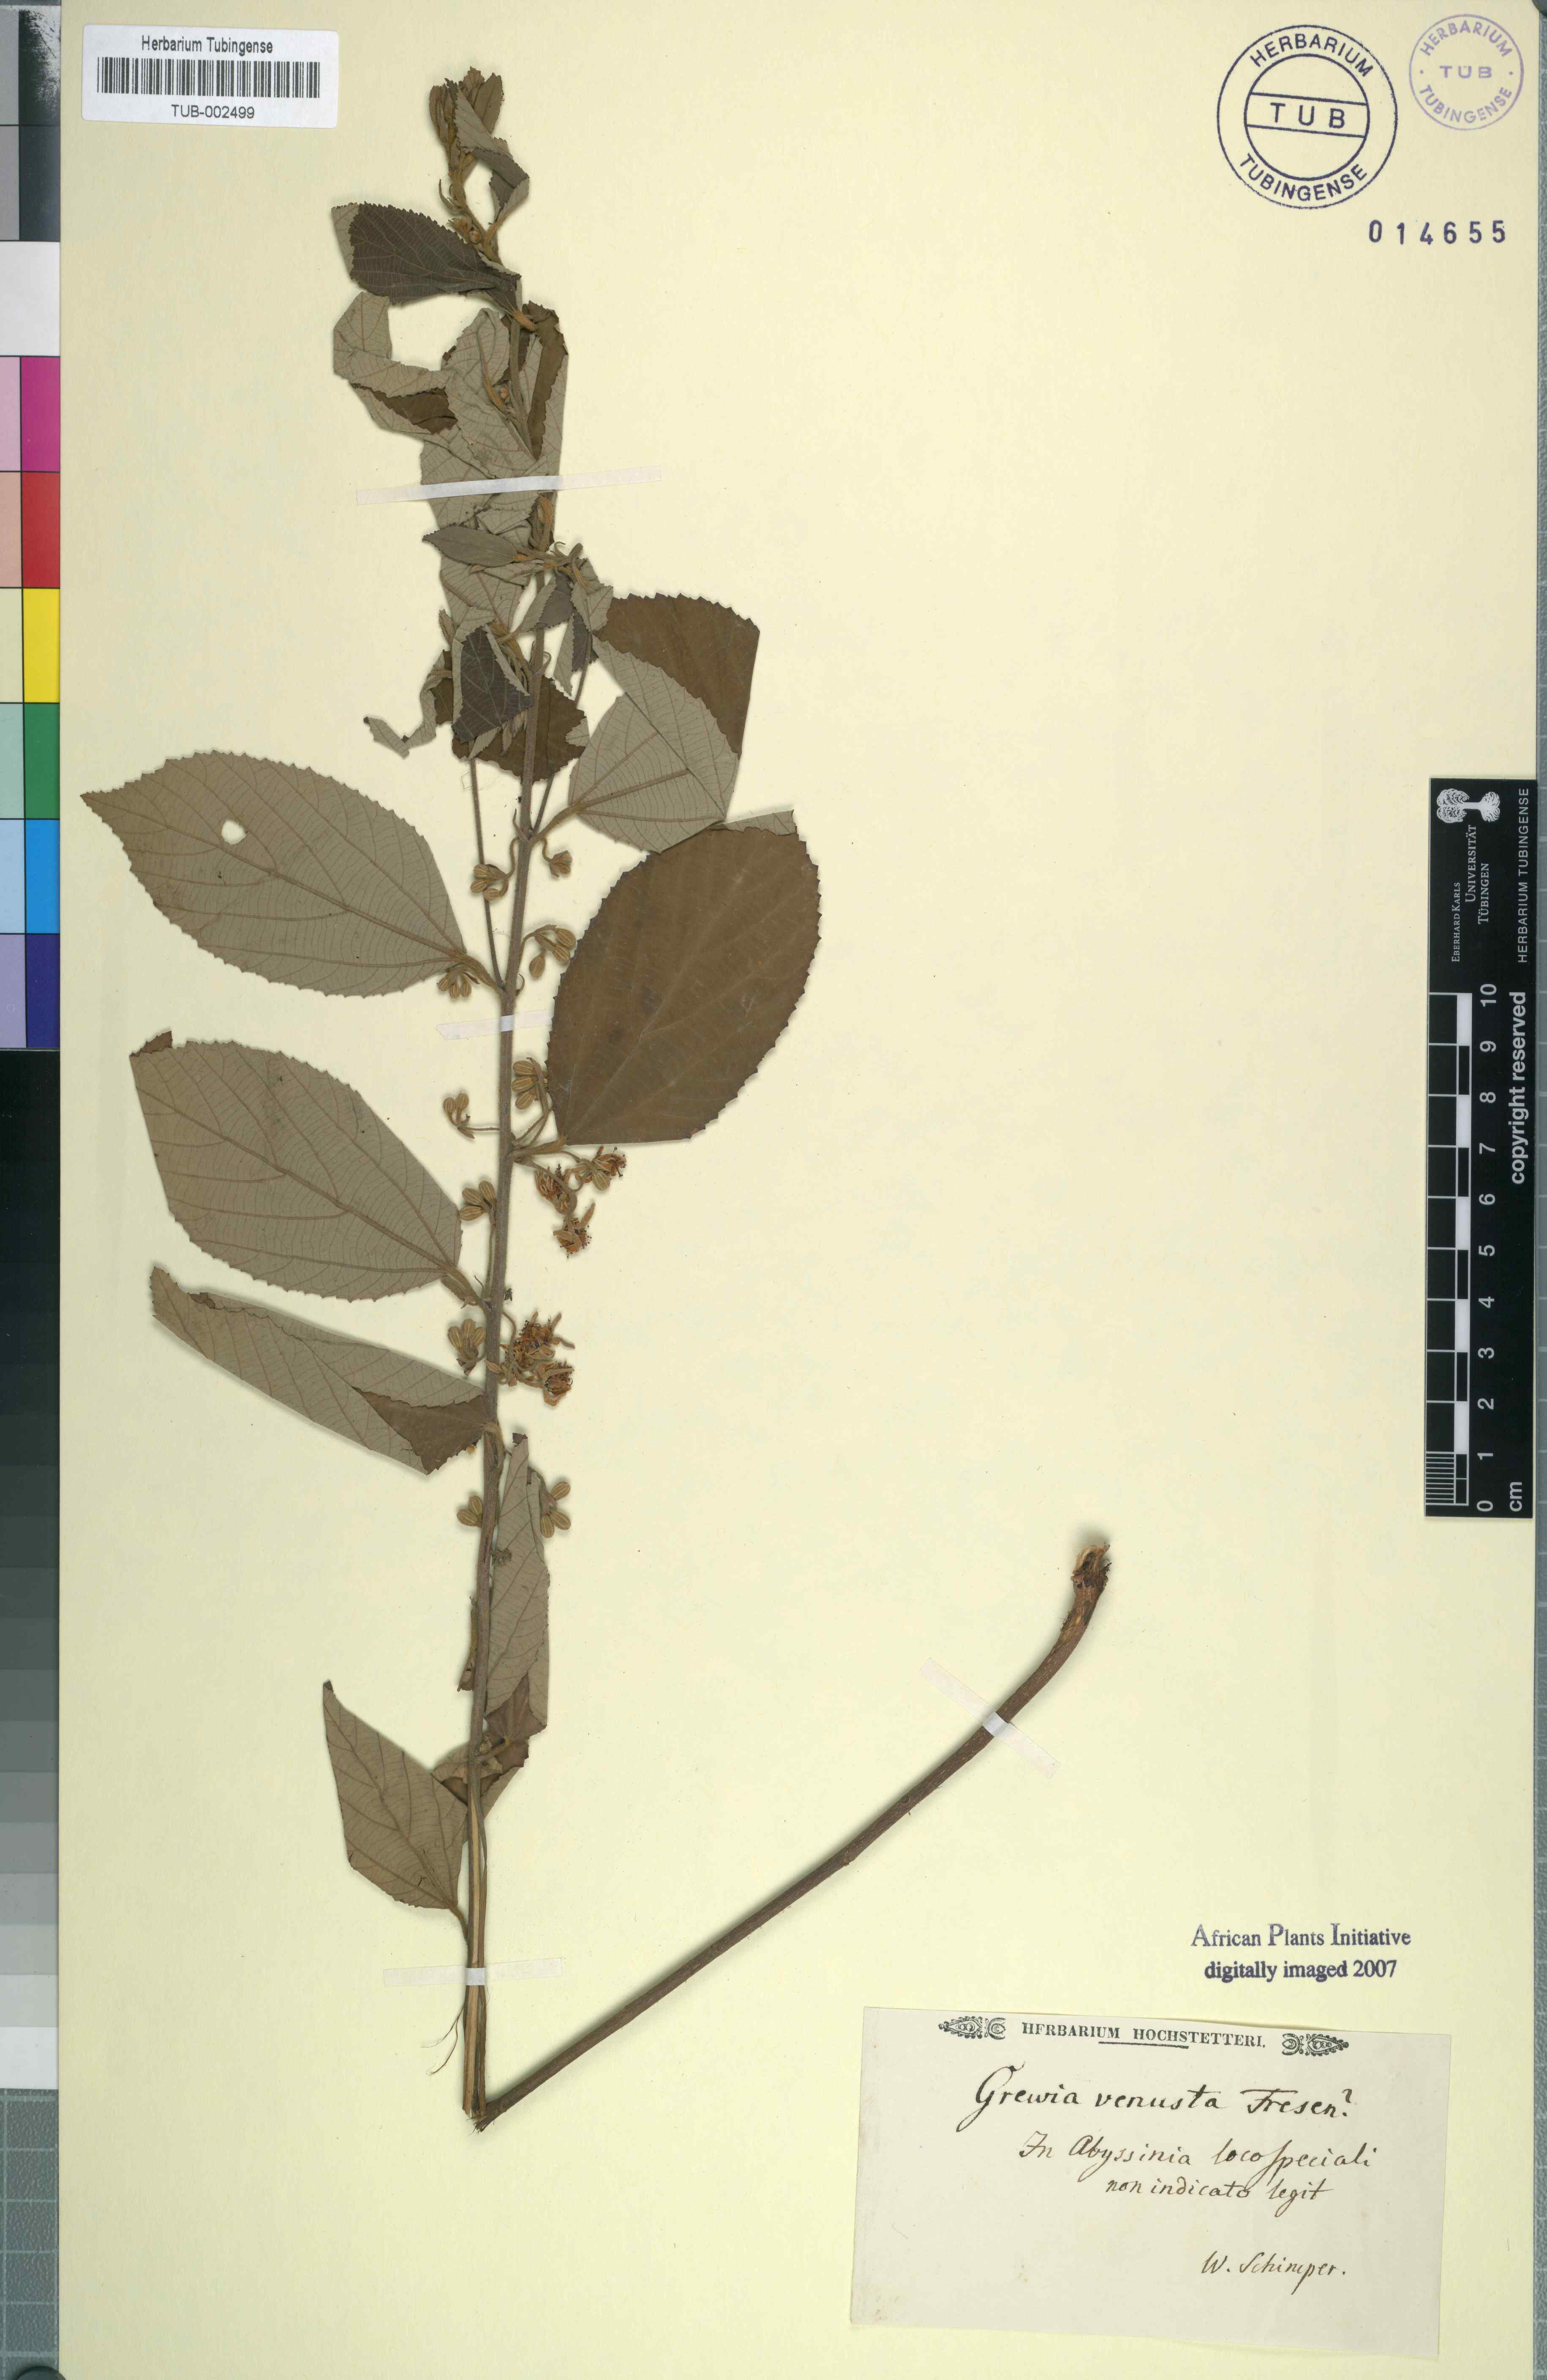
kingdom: Plantae
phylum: Tracheophyta
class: Magnoliopsida
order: Malvales
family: Malvaceae
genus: Grewia
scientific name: Grewia mollis
